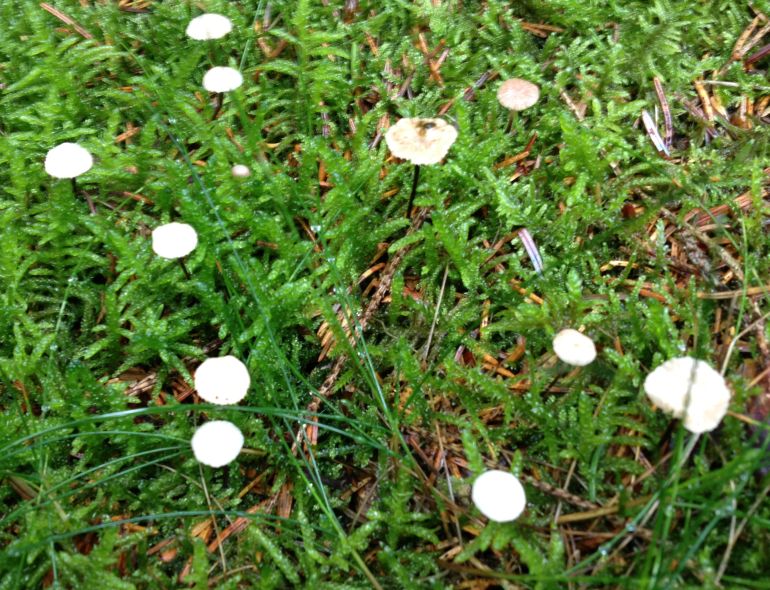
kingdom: Fungi
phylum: Basidiomycota
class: Agaricomycetes
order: Agaricales
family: Omphalotaceae
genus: Paragymnopus
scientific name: Paragymnopus perforans
